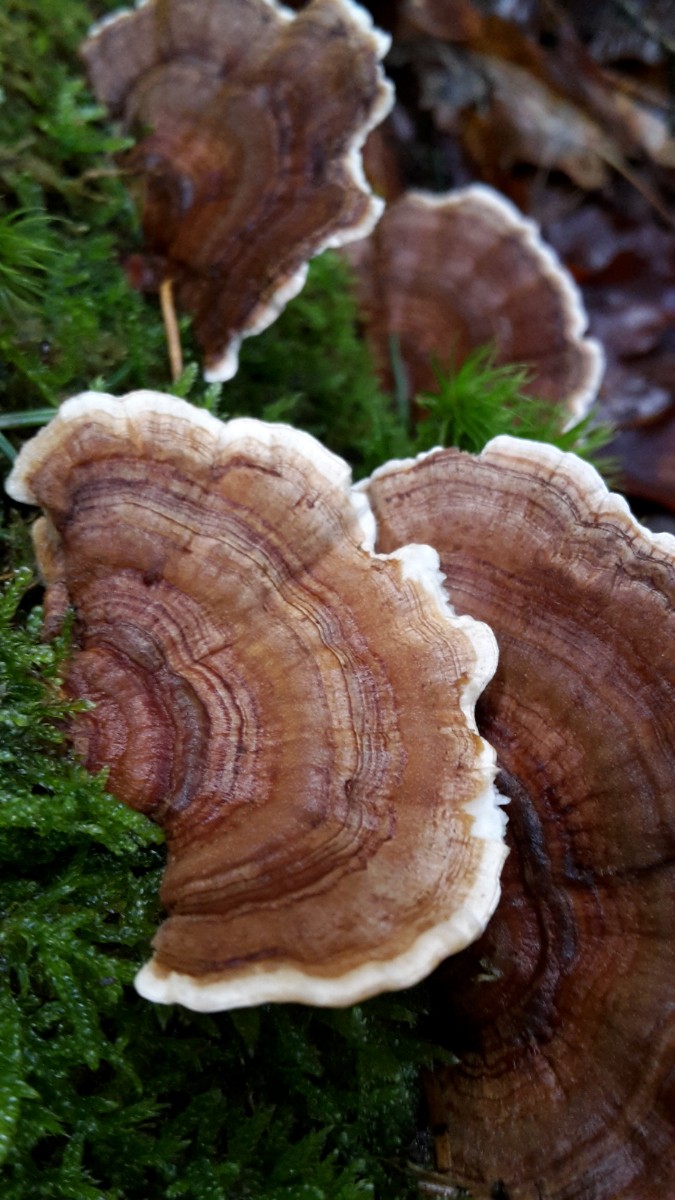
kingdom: Fungi
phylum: Basidiomycota
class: Agaricomycetes
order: Polyporales
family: Polyporaceae
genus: Trametes
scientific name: Trametes versicolor
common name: broget læderporesvamp
